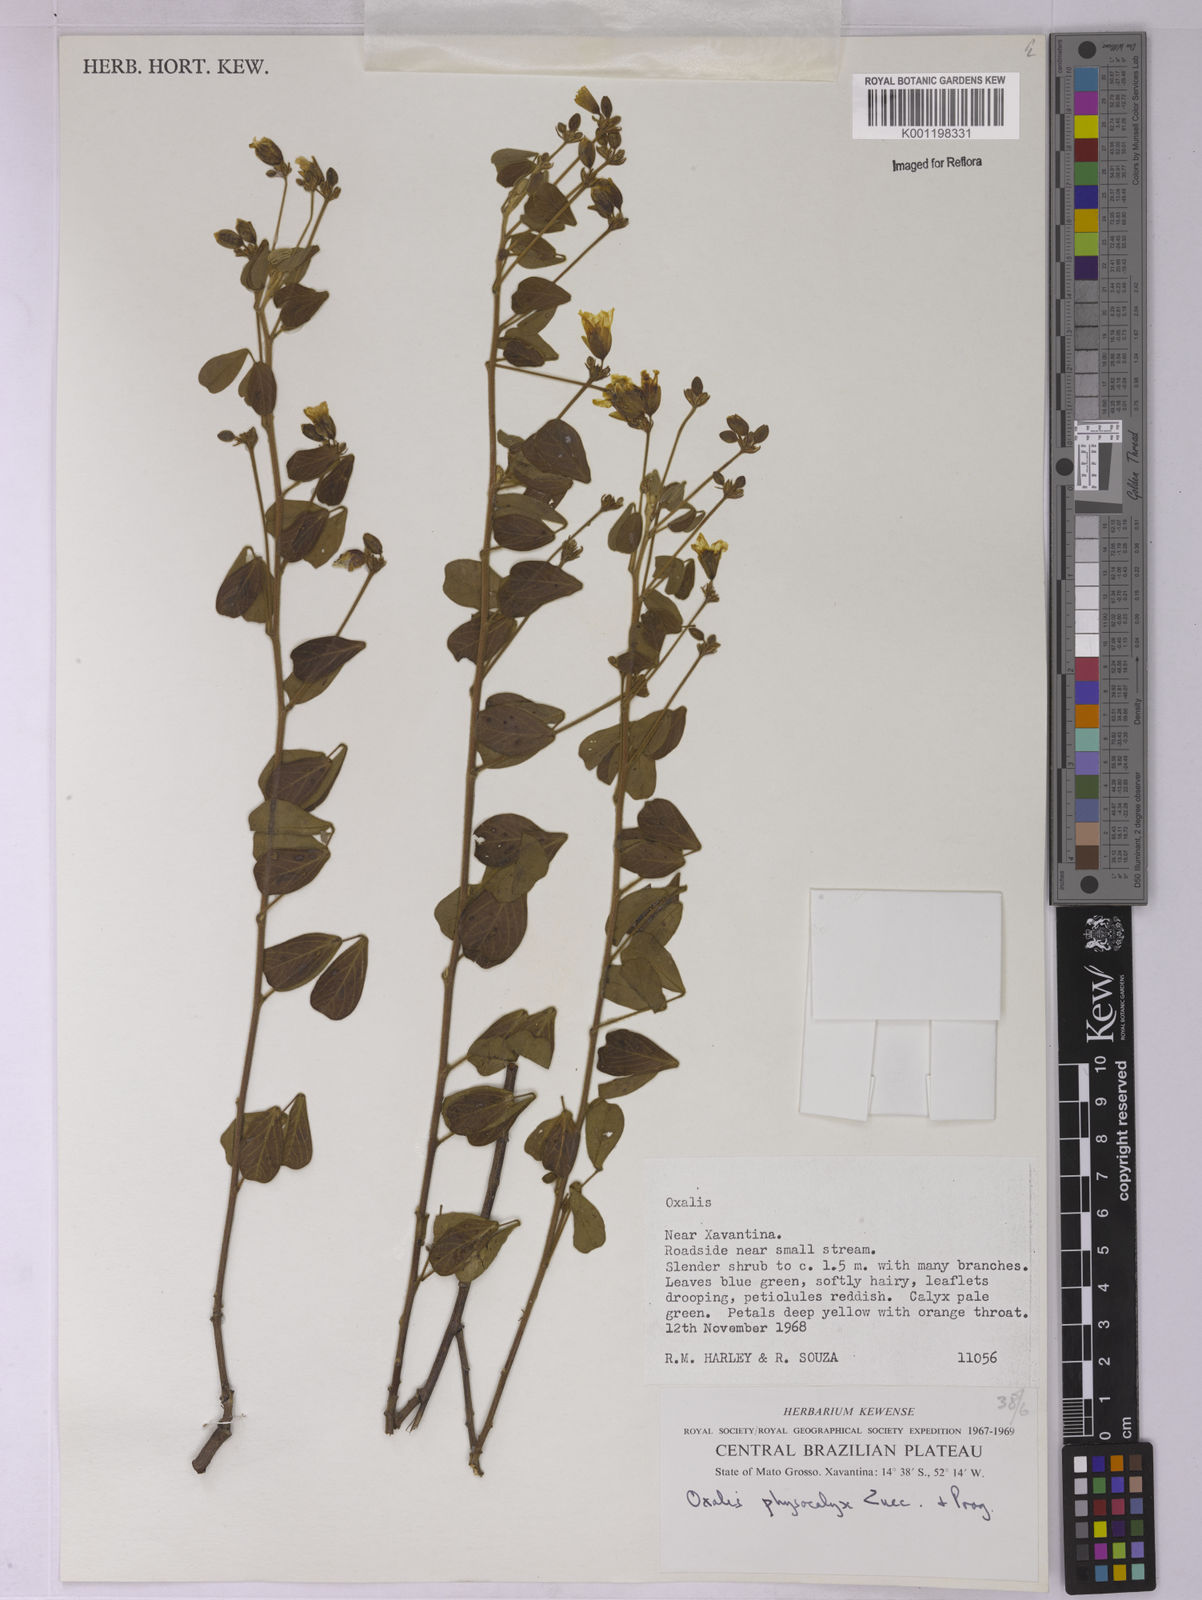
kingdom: Plantae
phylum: Tracheophyta
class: Magnoliopsida
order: Oxalidales
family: Oxalidaceae
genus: Oxalis
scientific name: Oxalis physocalyx
